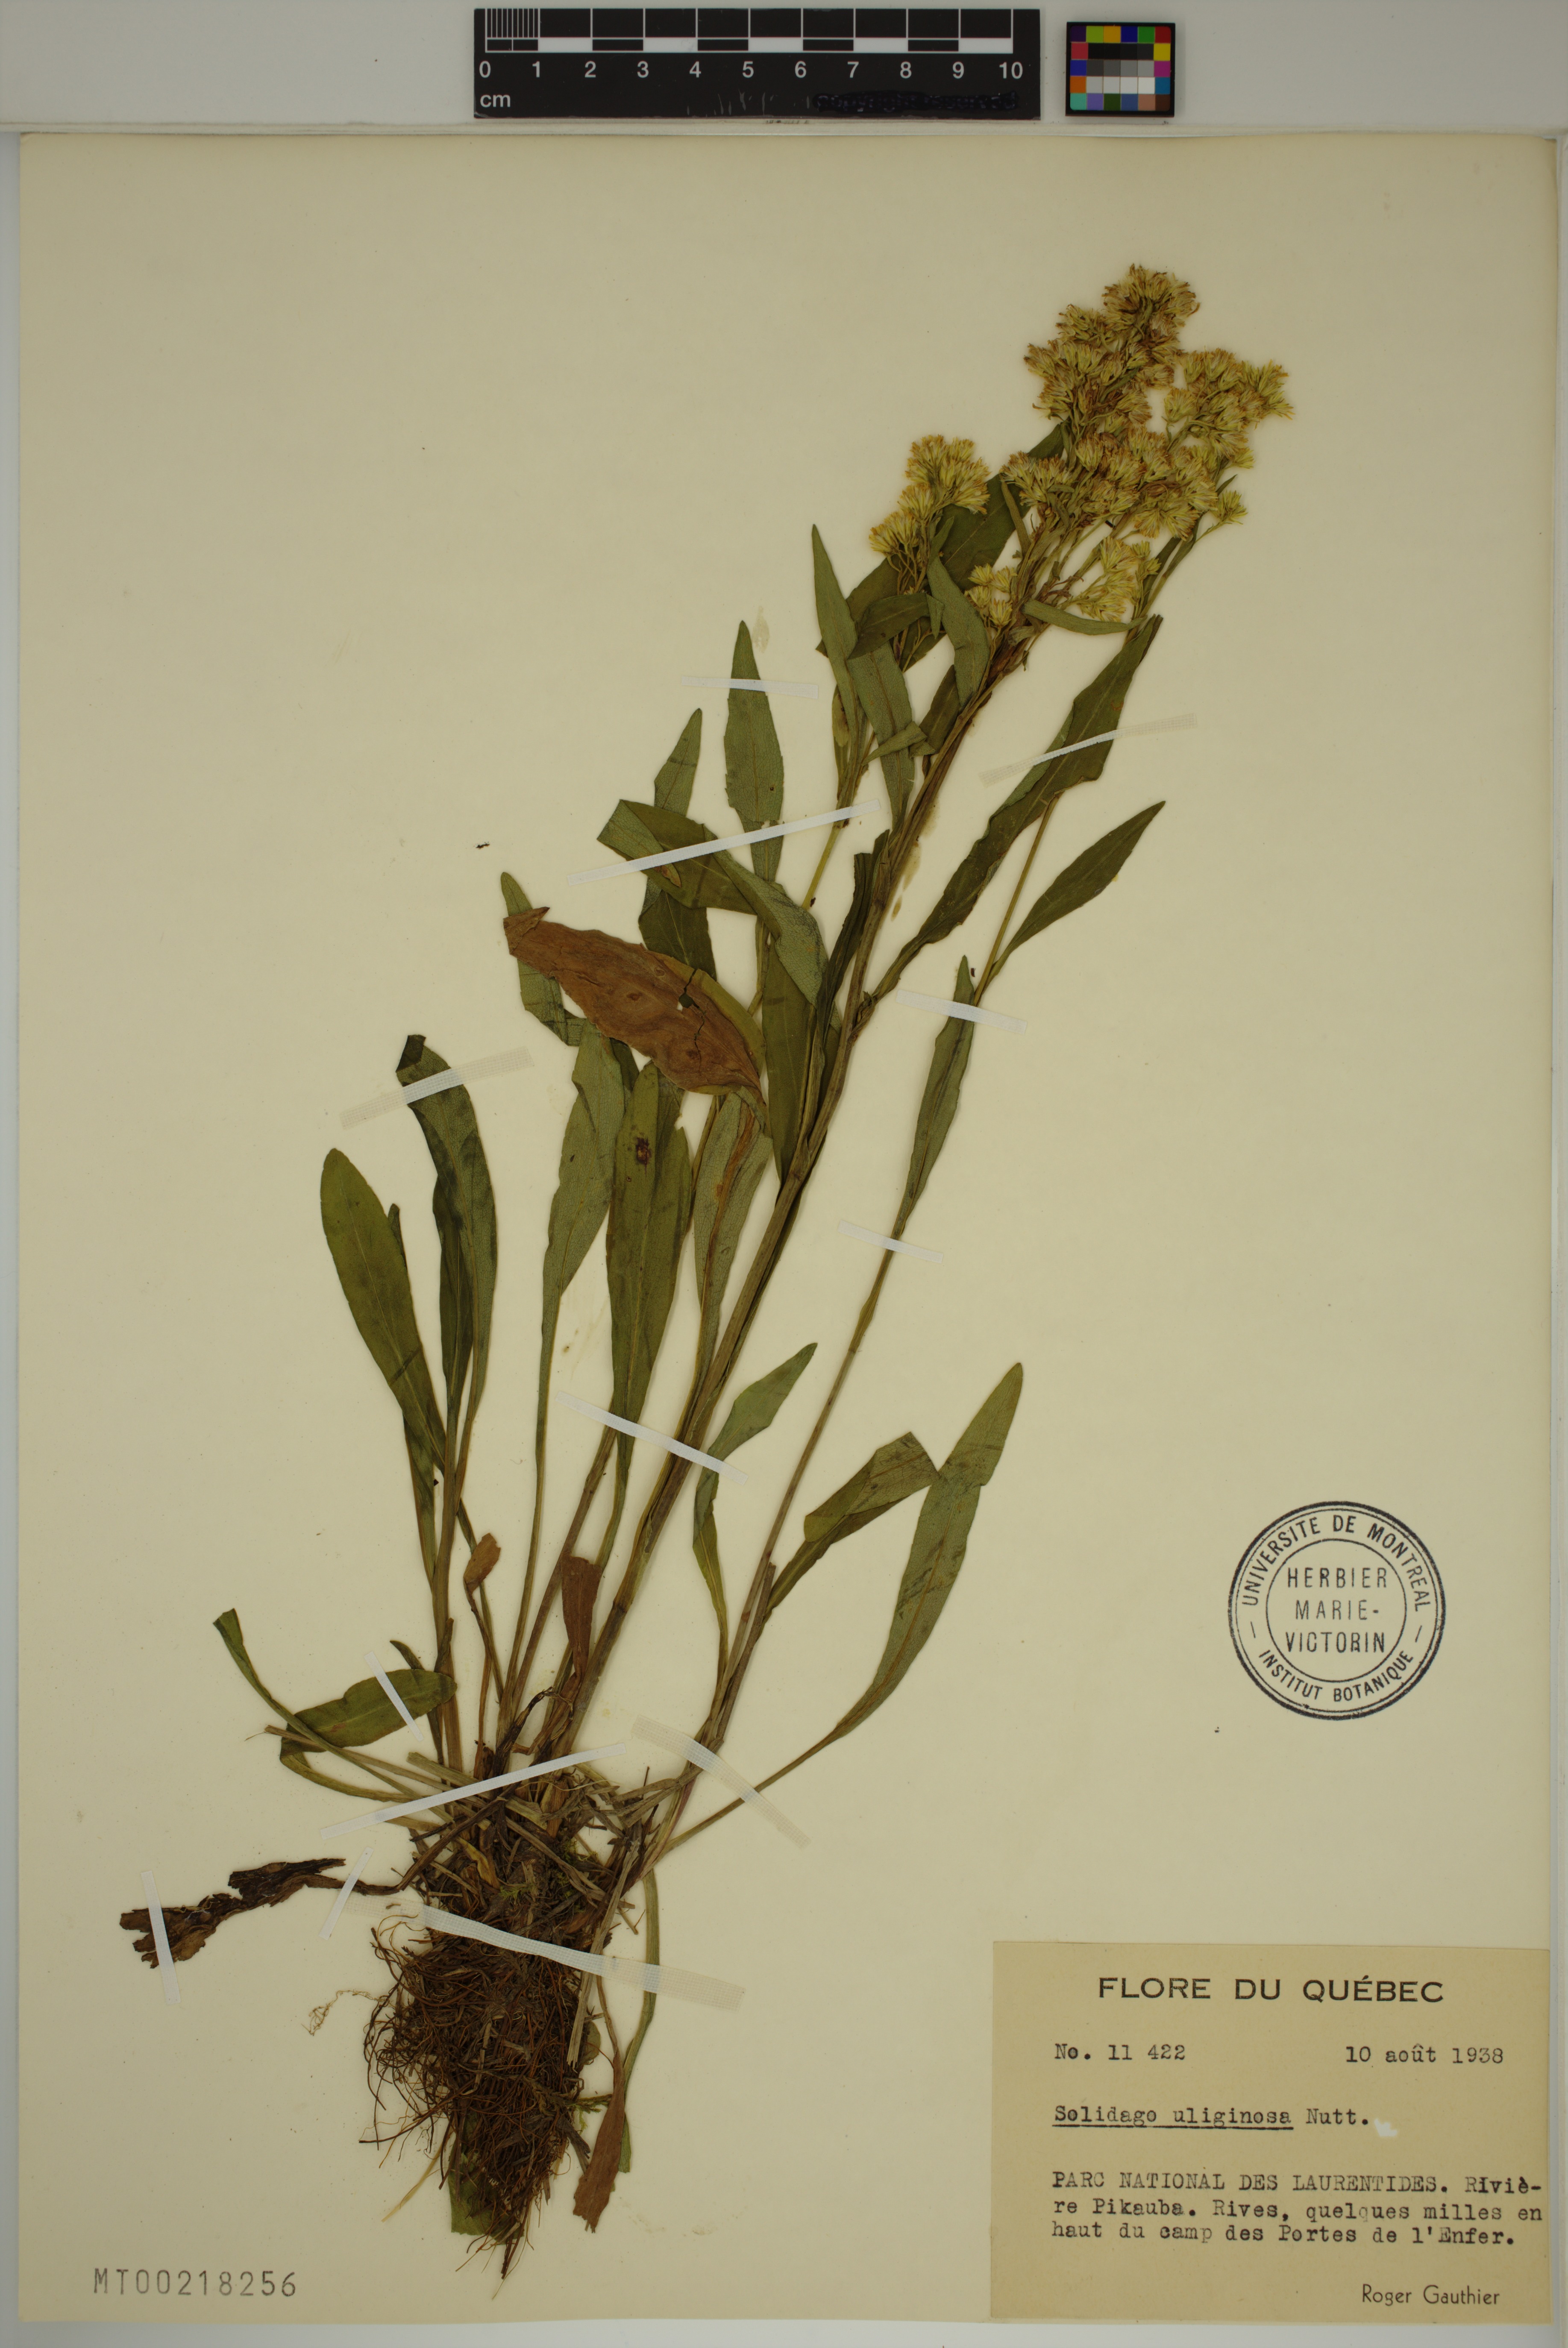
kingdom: Plantae
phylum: Tracheophyta
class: Magnoliopsida
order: Asterales
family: Asteraceae
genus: Solidago
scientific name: Solidago uliginosa
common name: Bog goldenrod
